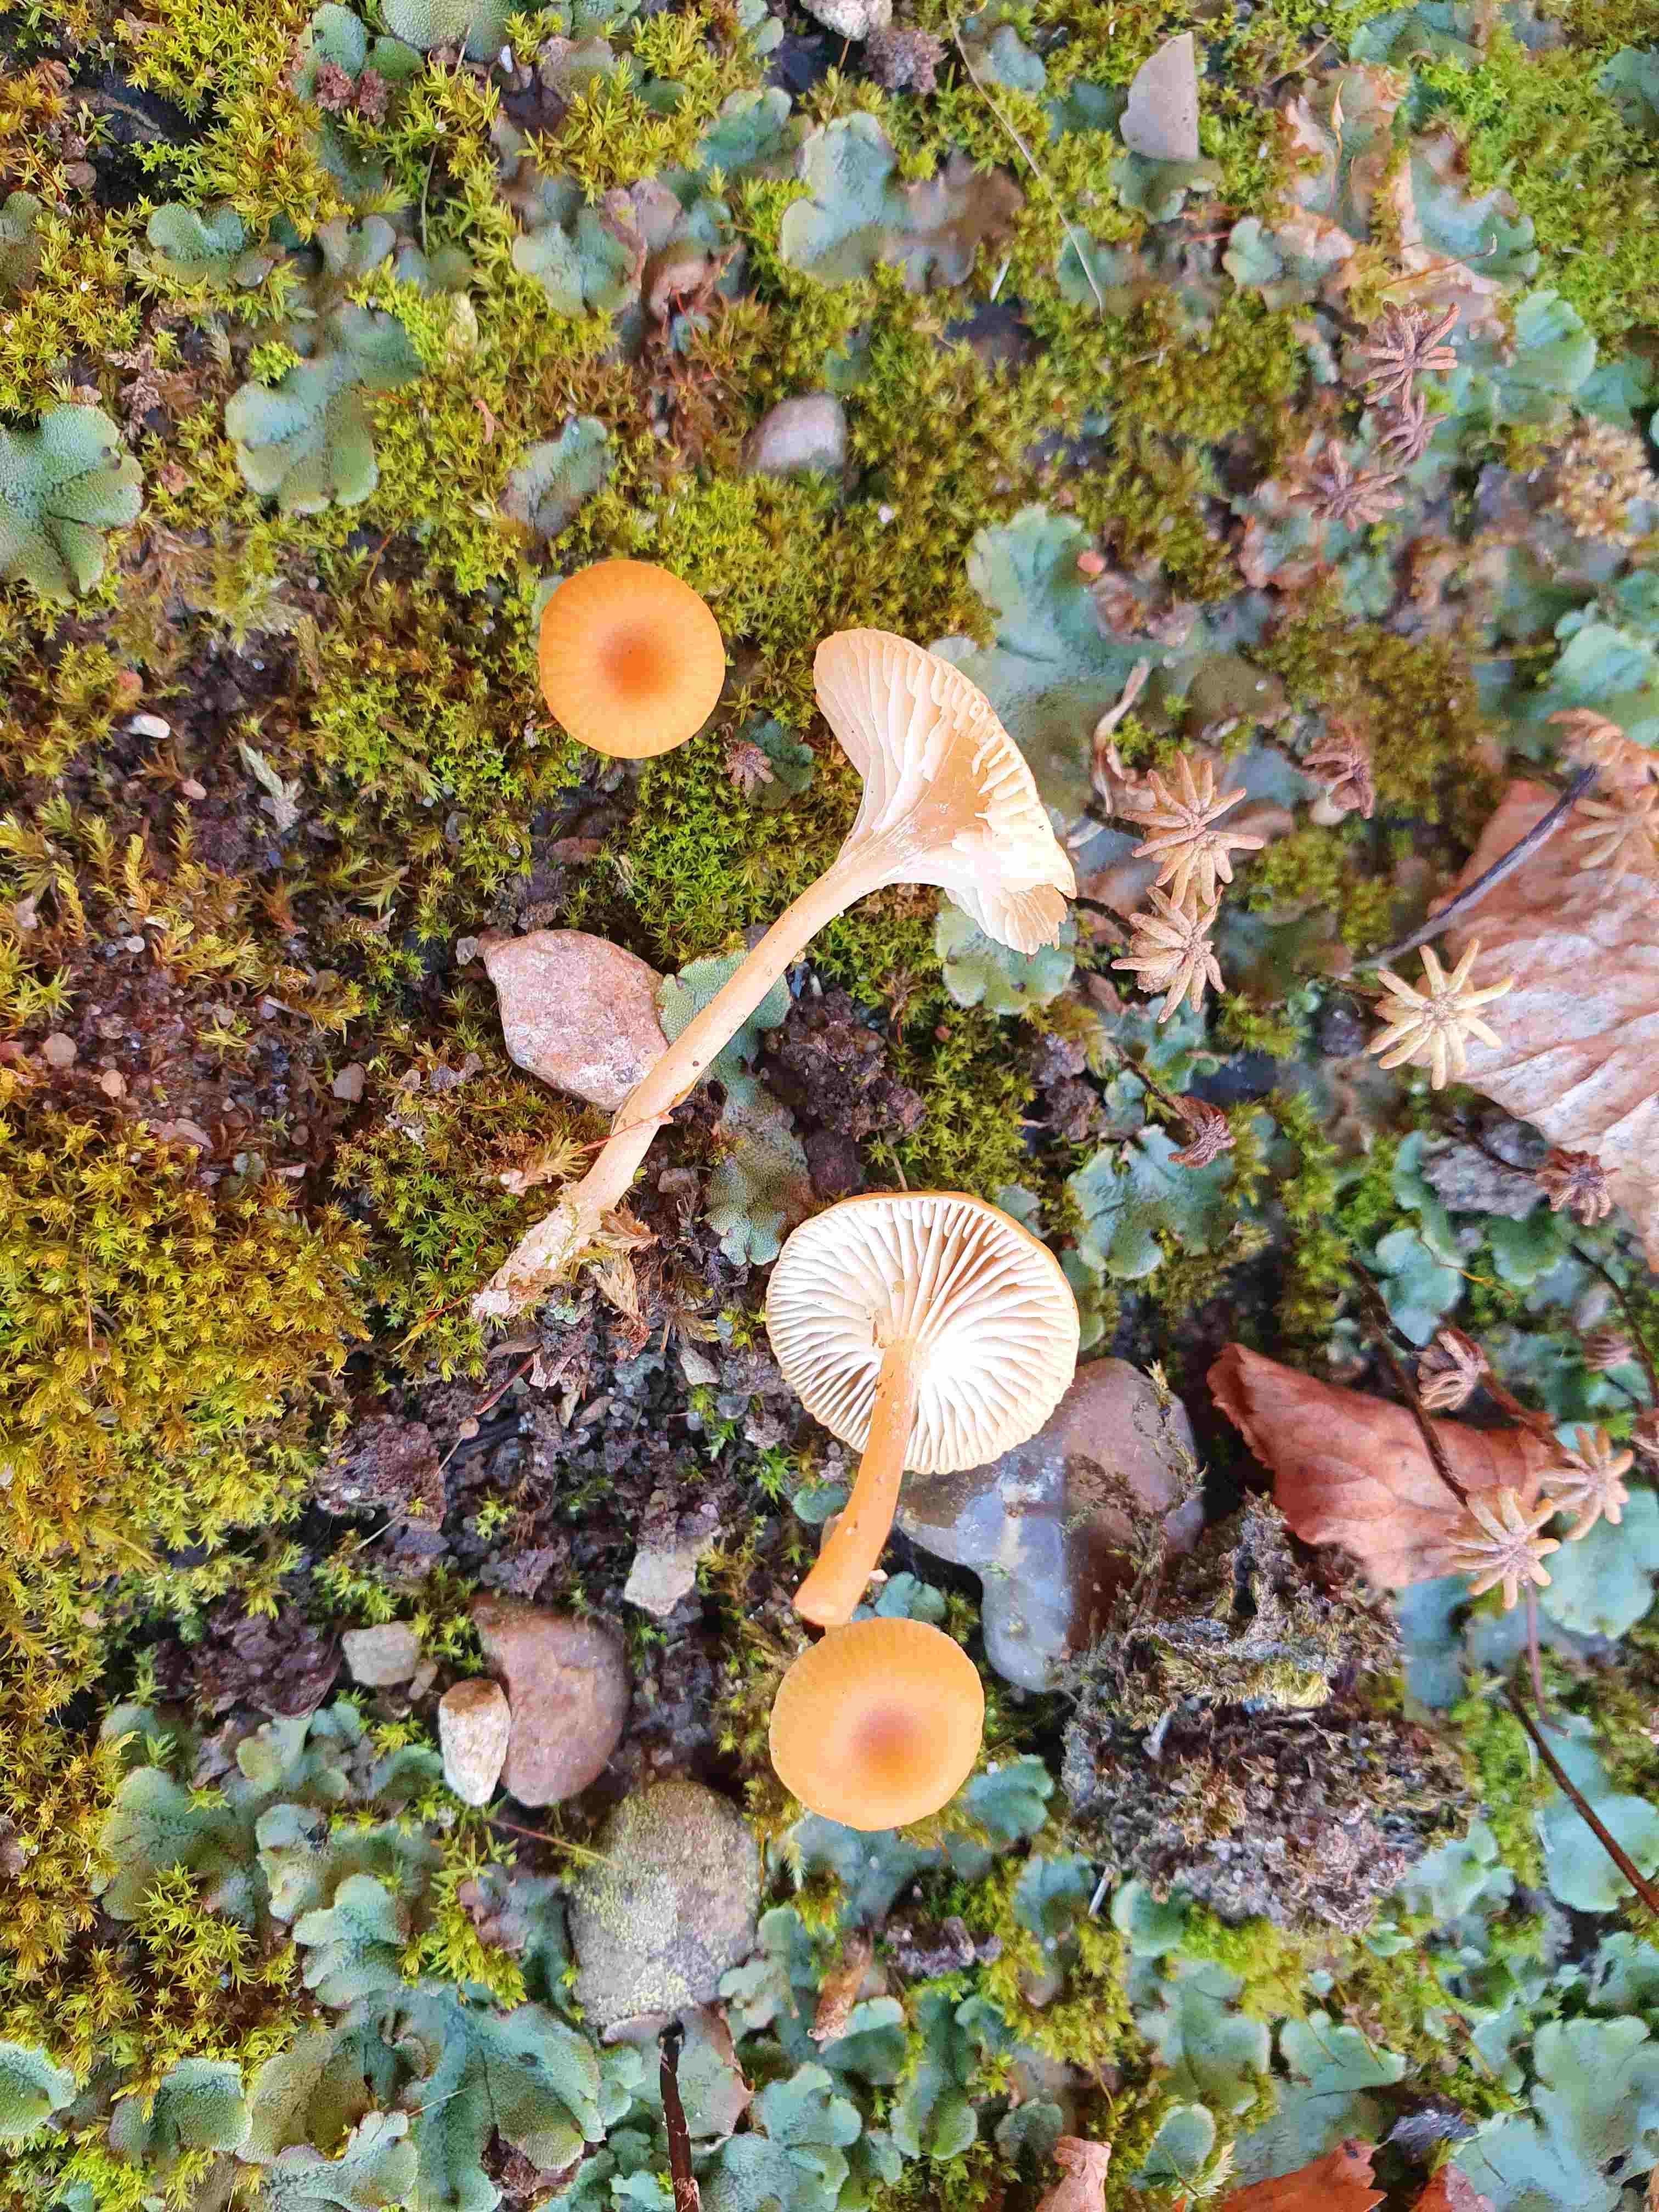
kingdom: Fungi
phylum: Basidiomycota
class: Agaricomycetes
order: Hymenochaetales
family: Rickenellaceae
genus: Loreleia
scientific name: Loreleia postii
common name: brandplet-mosnavlehat
